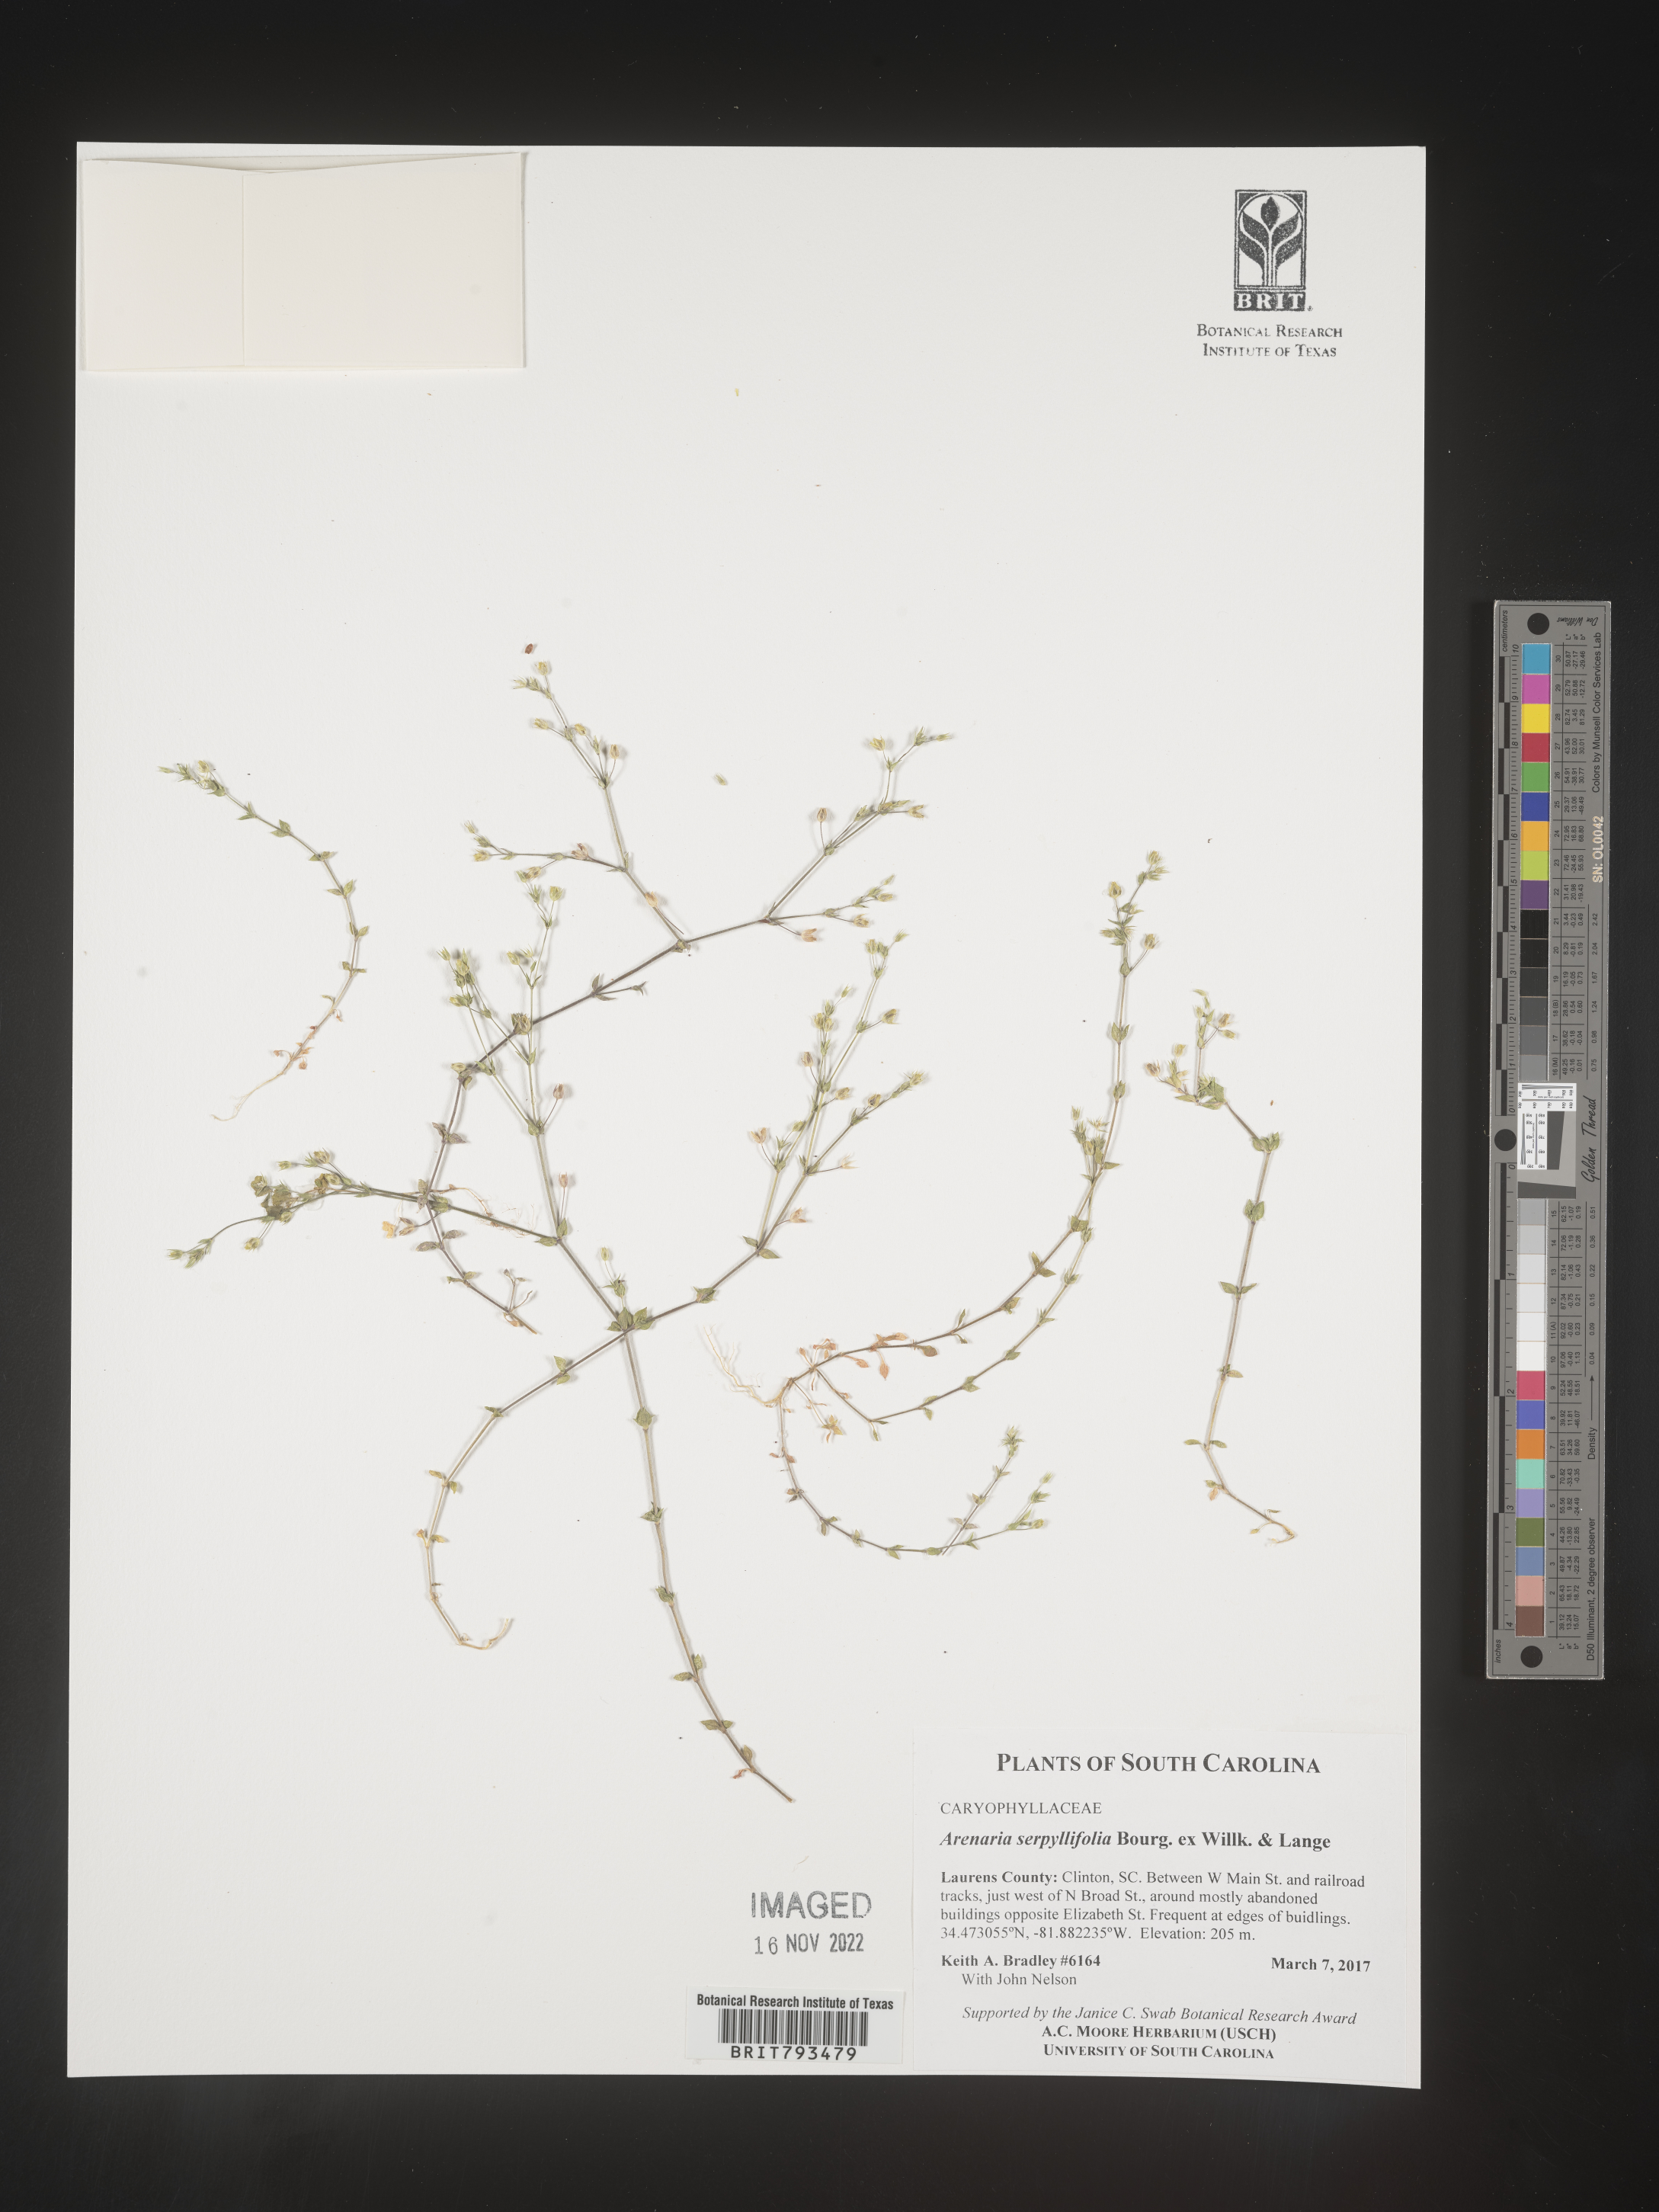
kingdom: Plantae
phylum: Tracheophyta
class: Magnoliopsida
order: Caryophyllales
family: Caryophyllaceae
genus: Arenaria
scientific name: Arenaria serpyllifolia
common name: Thyme-leaved sandwort
